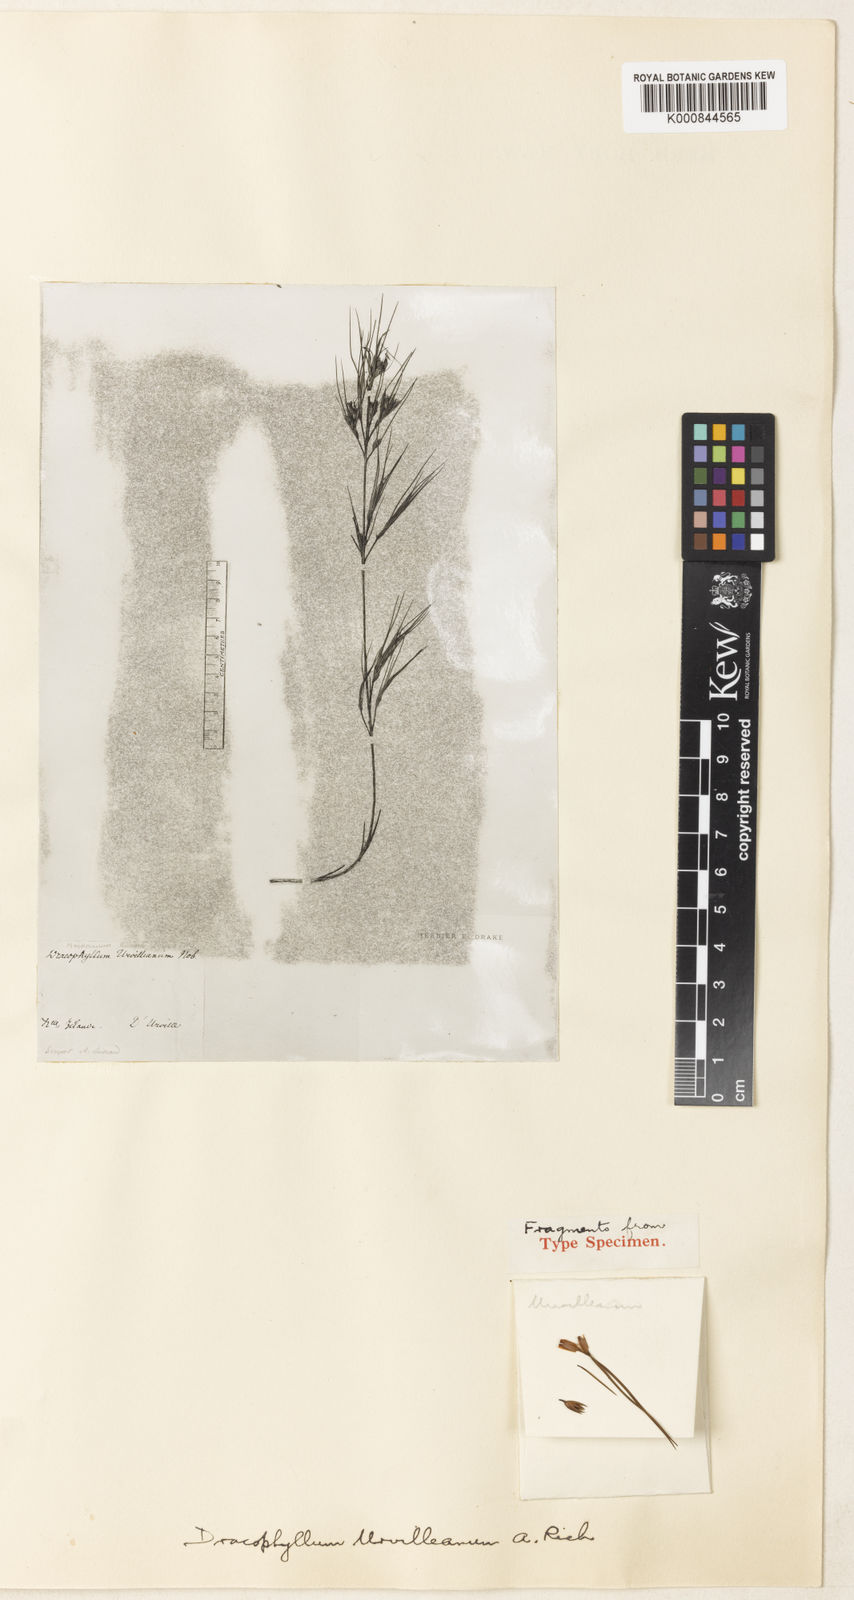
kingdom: Plantae
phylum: Tracheophyta
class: Magnoliopsida
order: Ericales
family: Ericaceae
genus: Dracophyllum
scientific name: Dracophyllum urvilleanum
